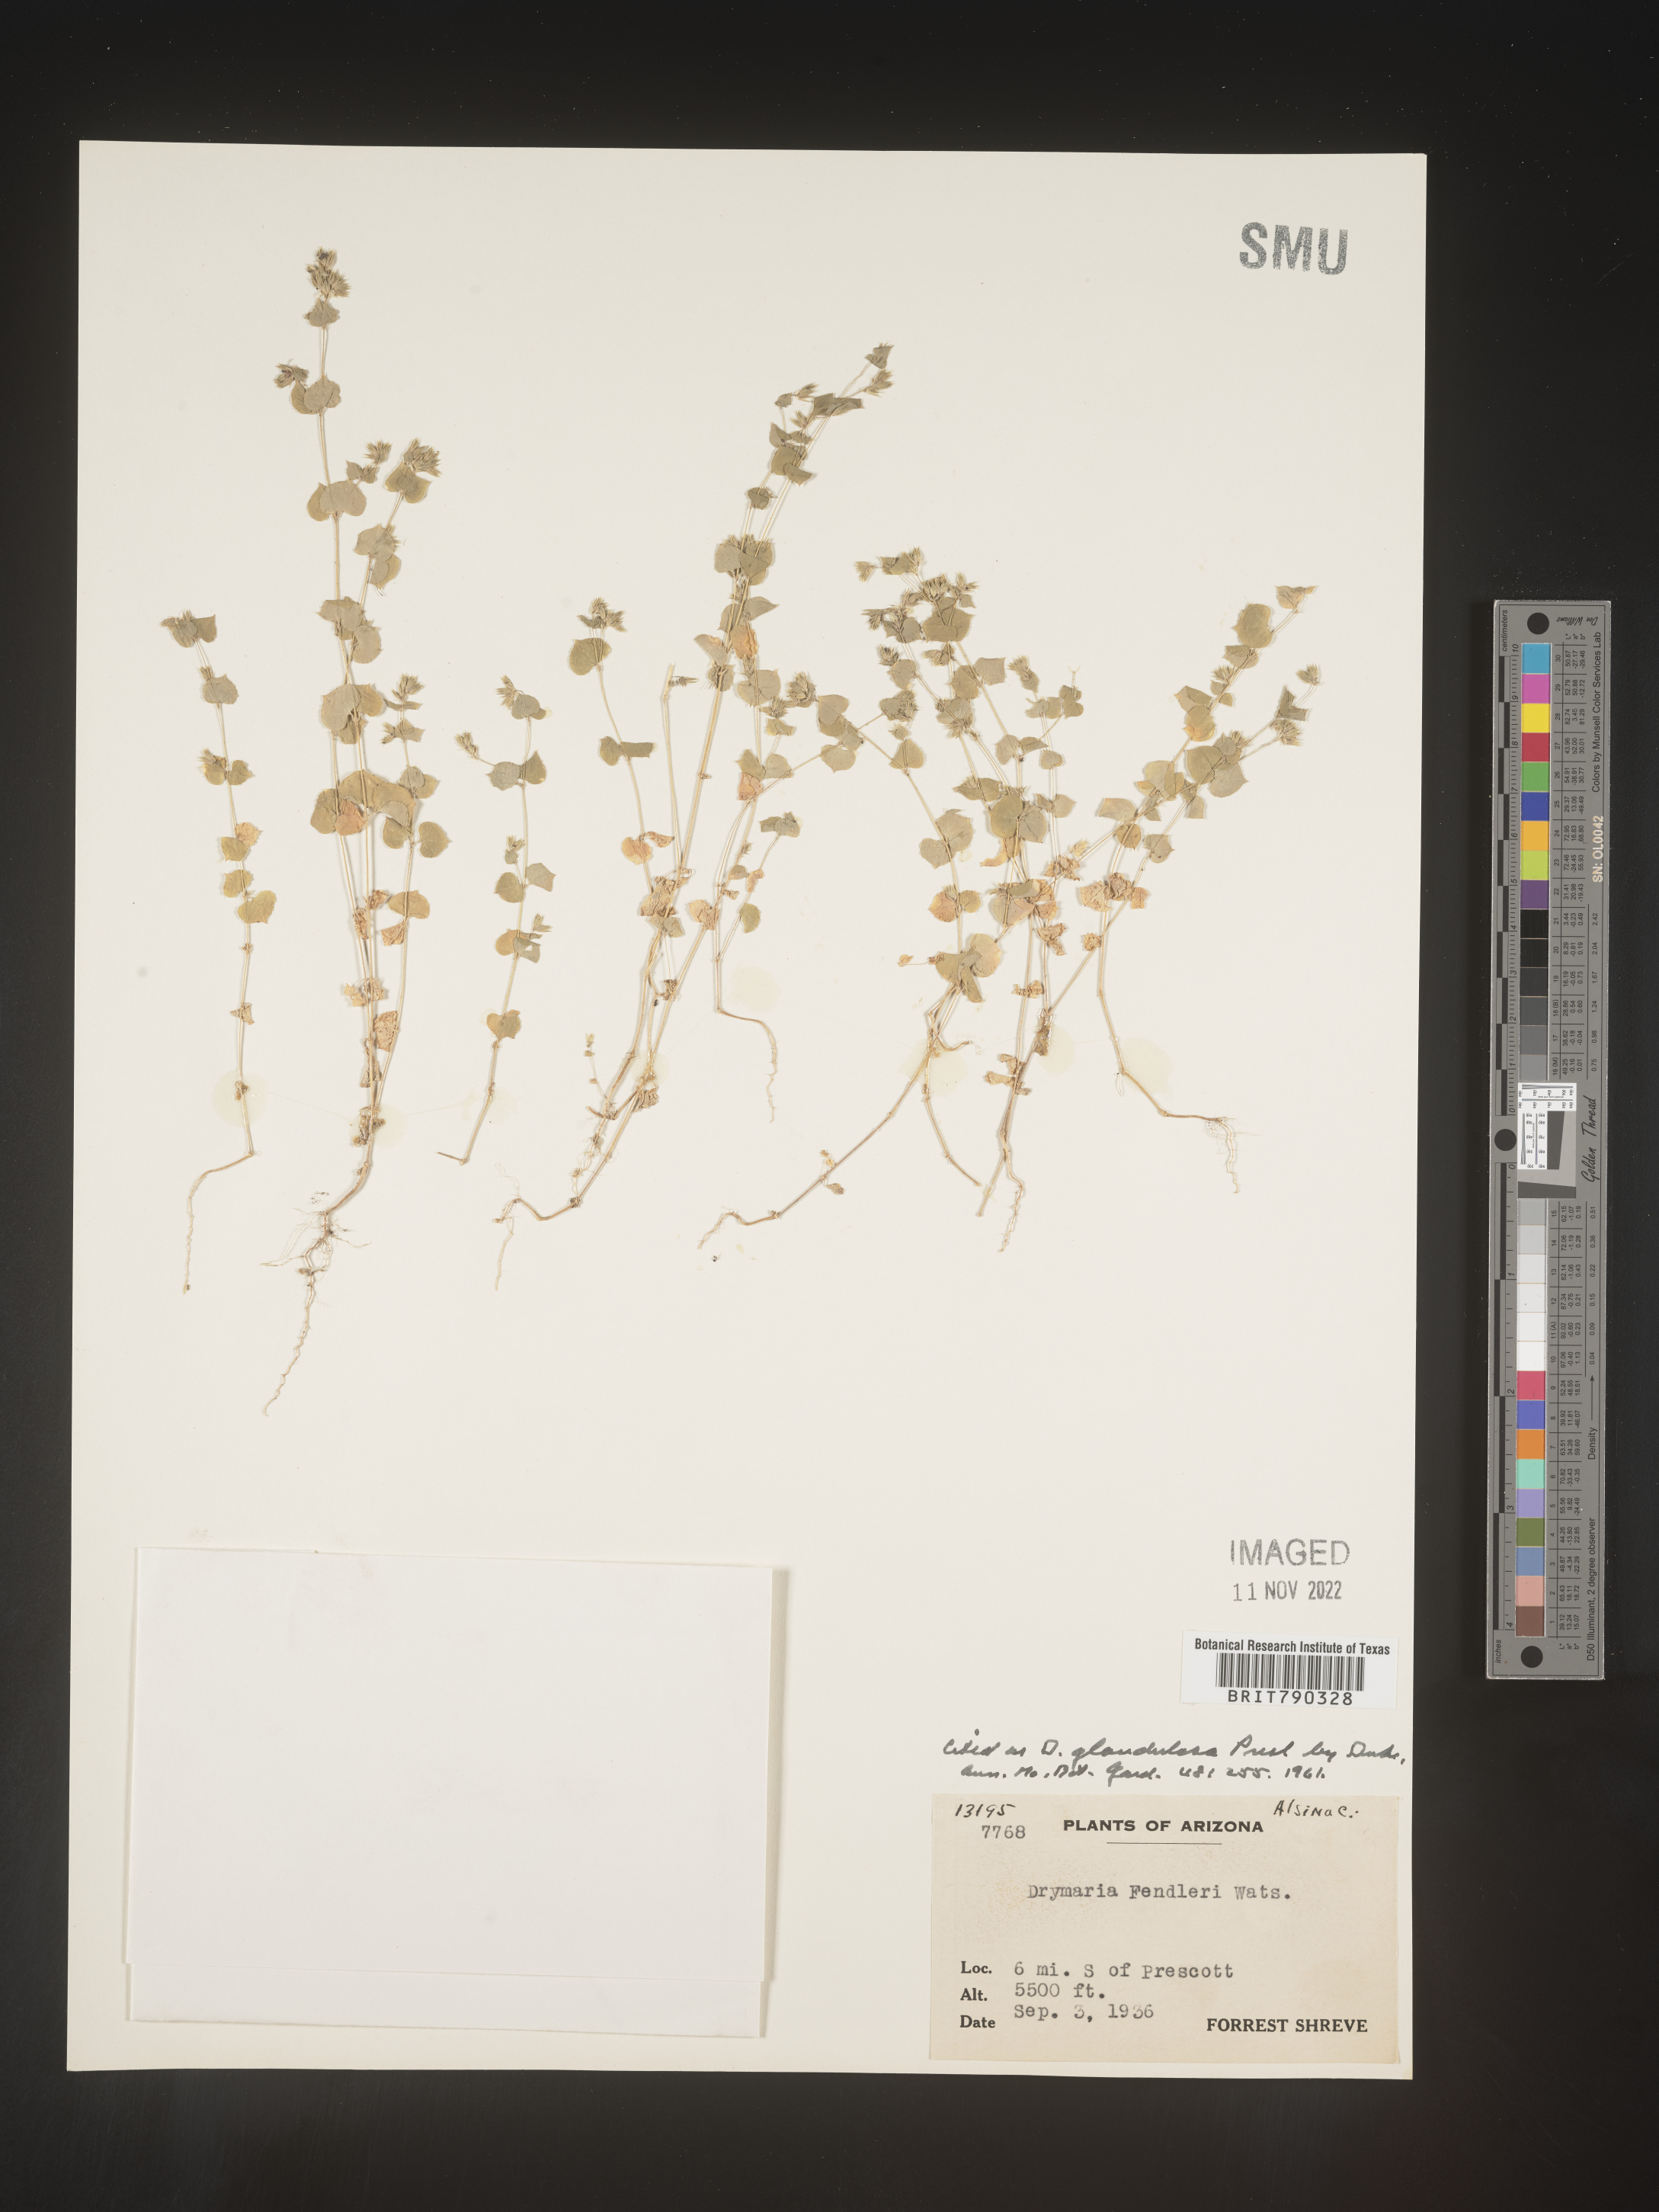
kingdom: Plantae
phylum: Tracheophyta
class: Magnoliopsida
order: Caryophyllales
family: Caryophyllaceae
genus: Drymaria
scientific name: Drymaria
